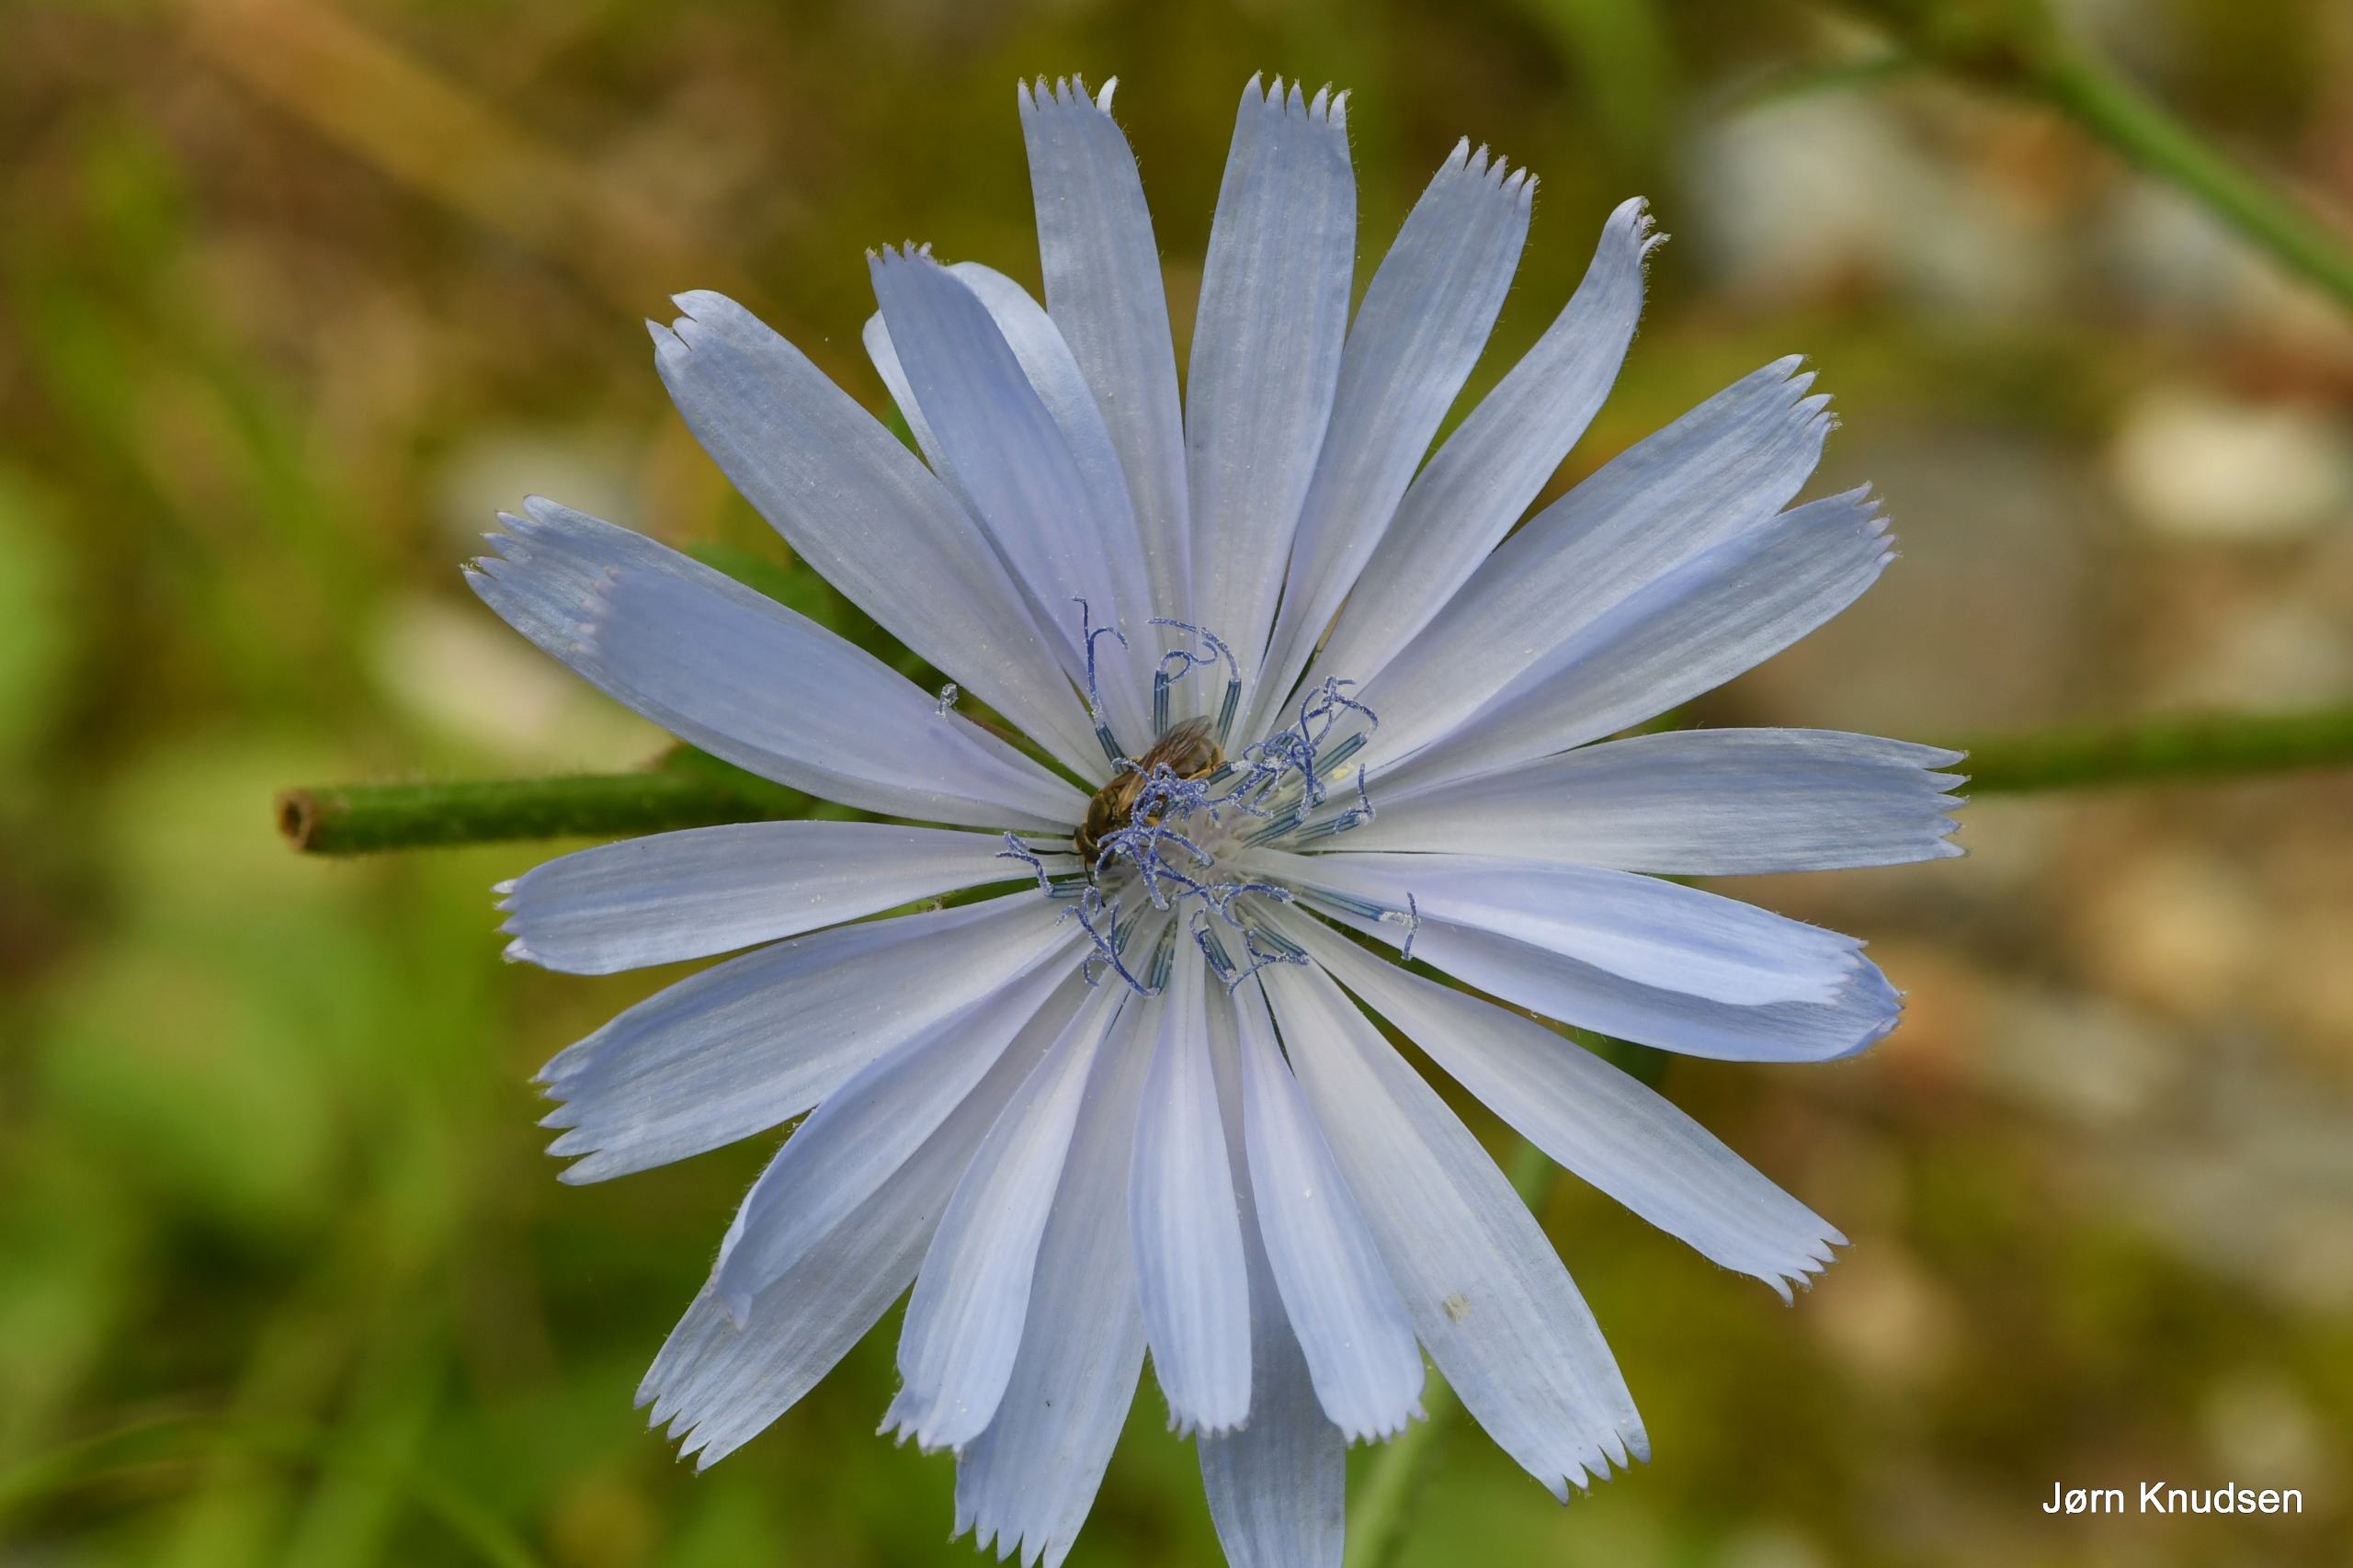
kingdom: Plantae
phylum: Tracheophyta
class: Magnoliopsida
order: Asterales
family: Asteraceae
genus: Cichorium
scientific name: Cichorium intybus
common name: Cikorie
